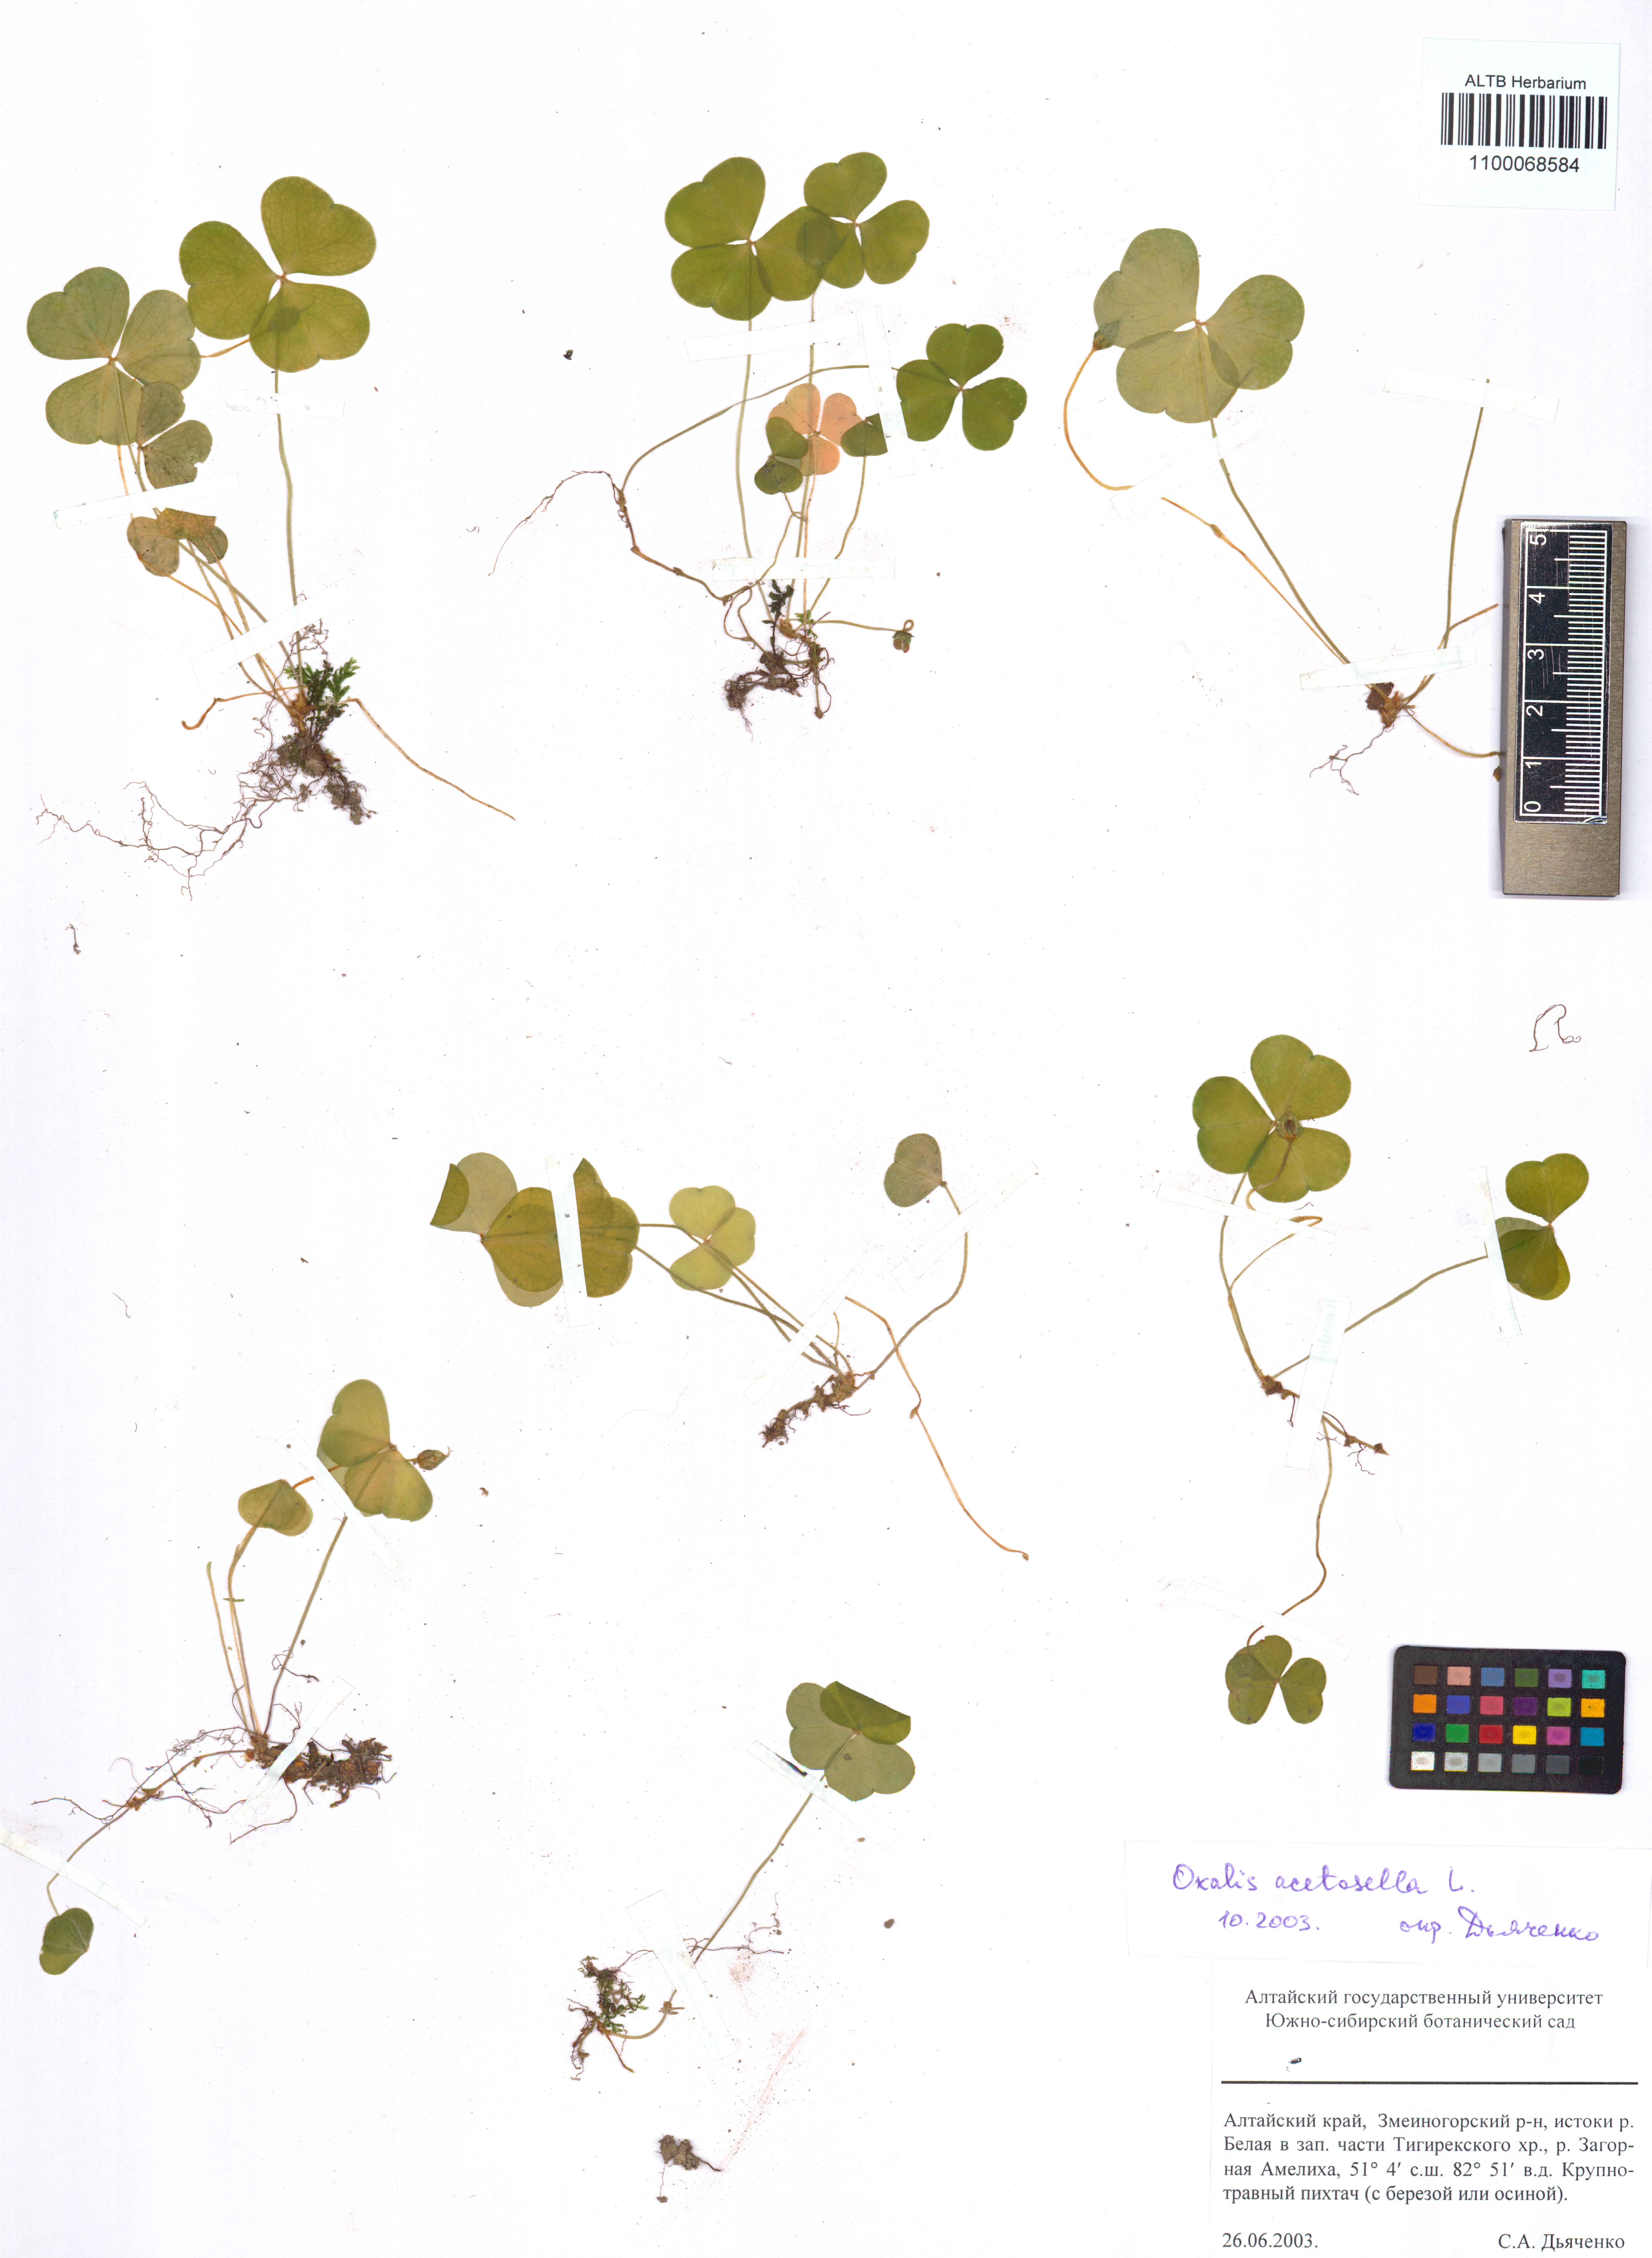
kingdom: Plantae
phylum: Tracheophyta
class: Magnoliopsida
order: Oxalidales
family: Oxalidaceae
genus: Oxalis
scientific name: Oxalis acetosella
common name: Wood-sorrel
